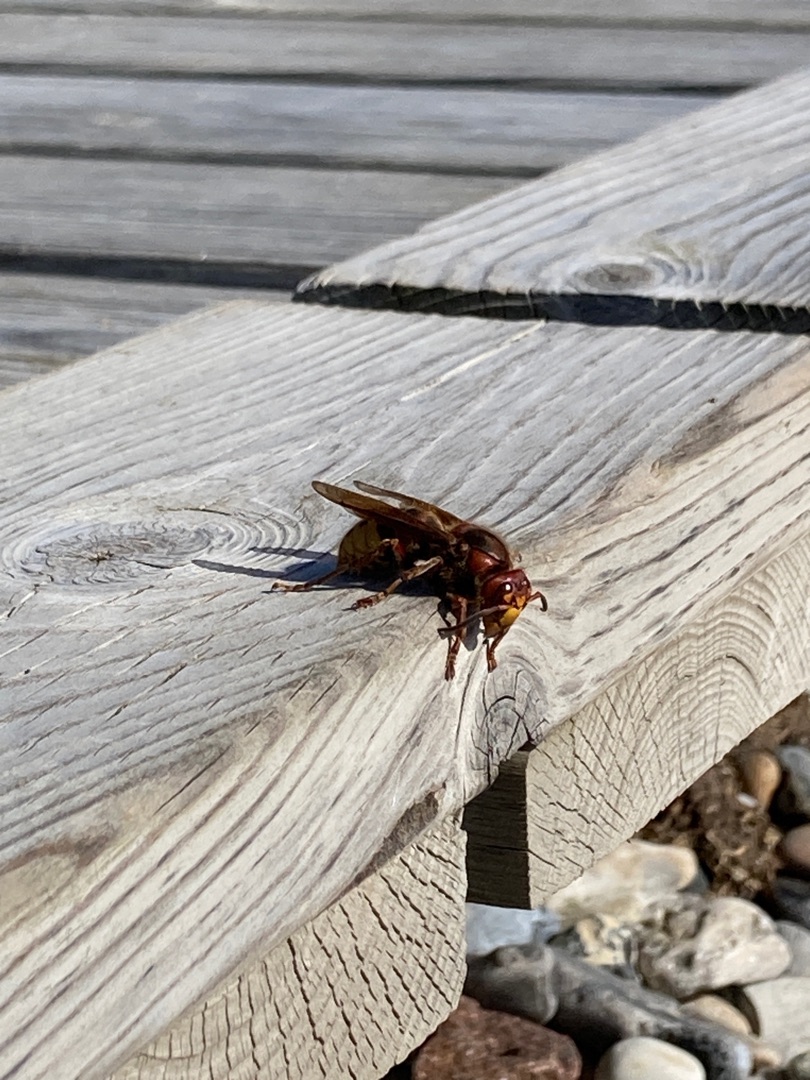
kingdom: Animalia
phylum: Arthropoda
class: Insecta
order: Hymenoptera
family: Vespidae
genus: Vespa
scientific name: Vespa crabro
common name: Stor gedehams
